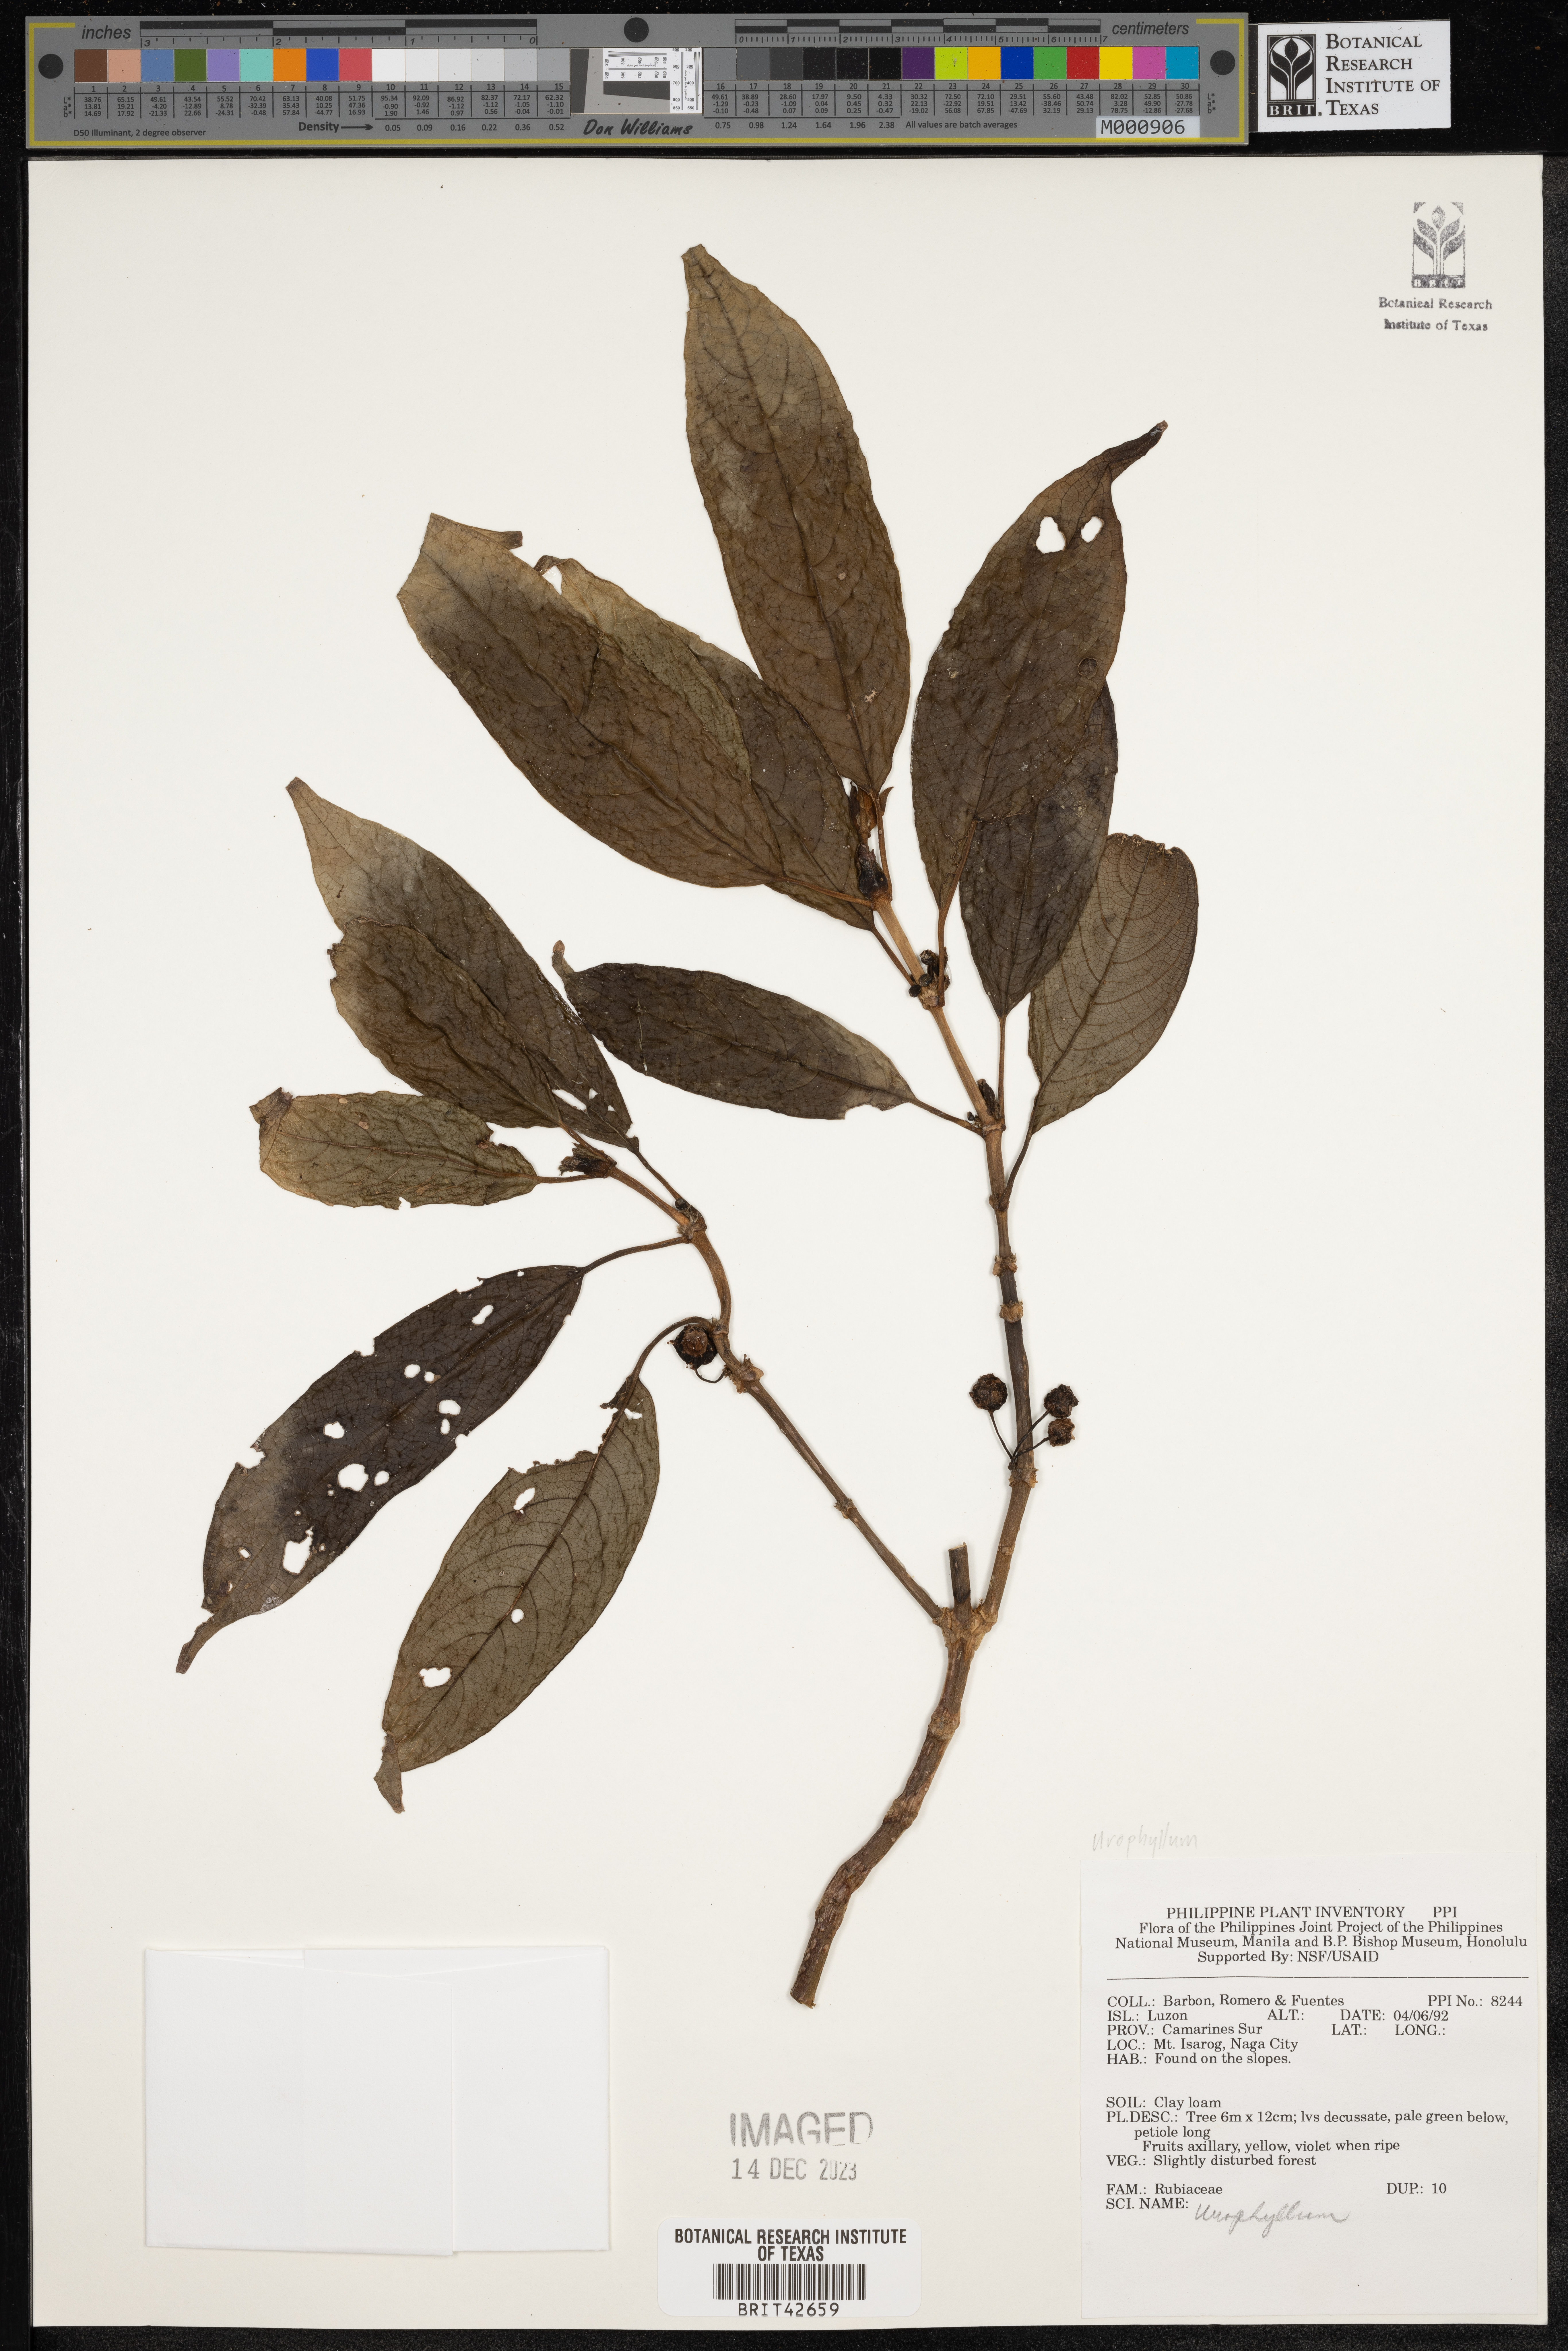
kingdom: Plantae
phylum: Tracheophyta
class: Magnoliopsida
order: Gentianales
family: Rubiaceae
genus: Urophyllum
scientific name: Urophyllum
